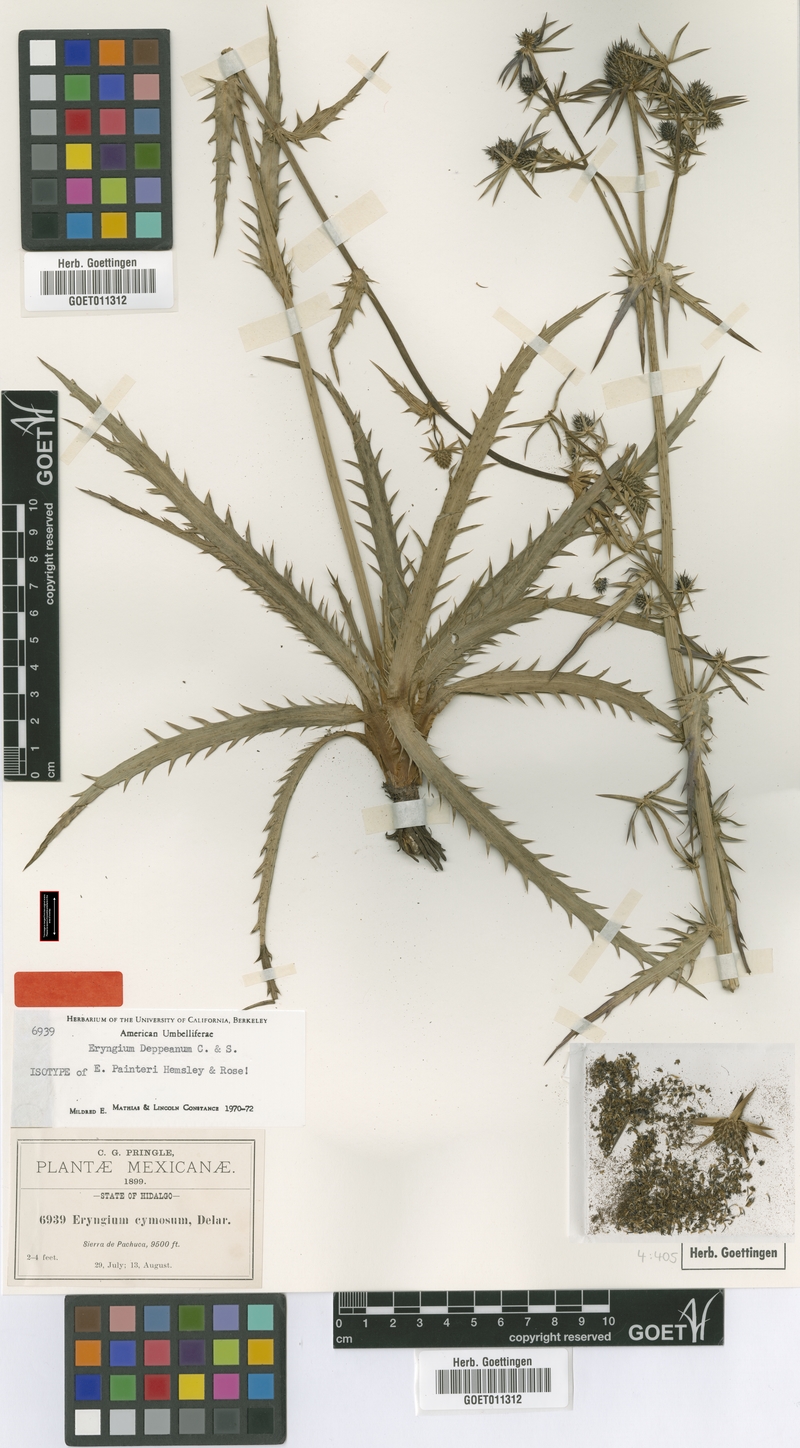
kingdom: Plantae
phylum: Tracheophyta
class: Magnoliopsida
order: Apiales
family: Apiaceae
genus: Eryngium
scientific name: Eryngium deppeanum
